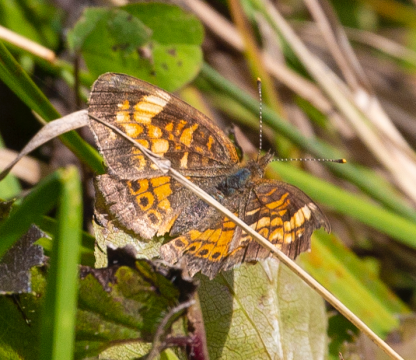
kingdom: Animalia
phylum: Arthropoda
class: Insecta
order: Lepidoptera
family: Nymphalidae
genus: Phyciodes
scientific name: Phyciodes
